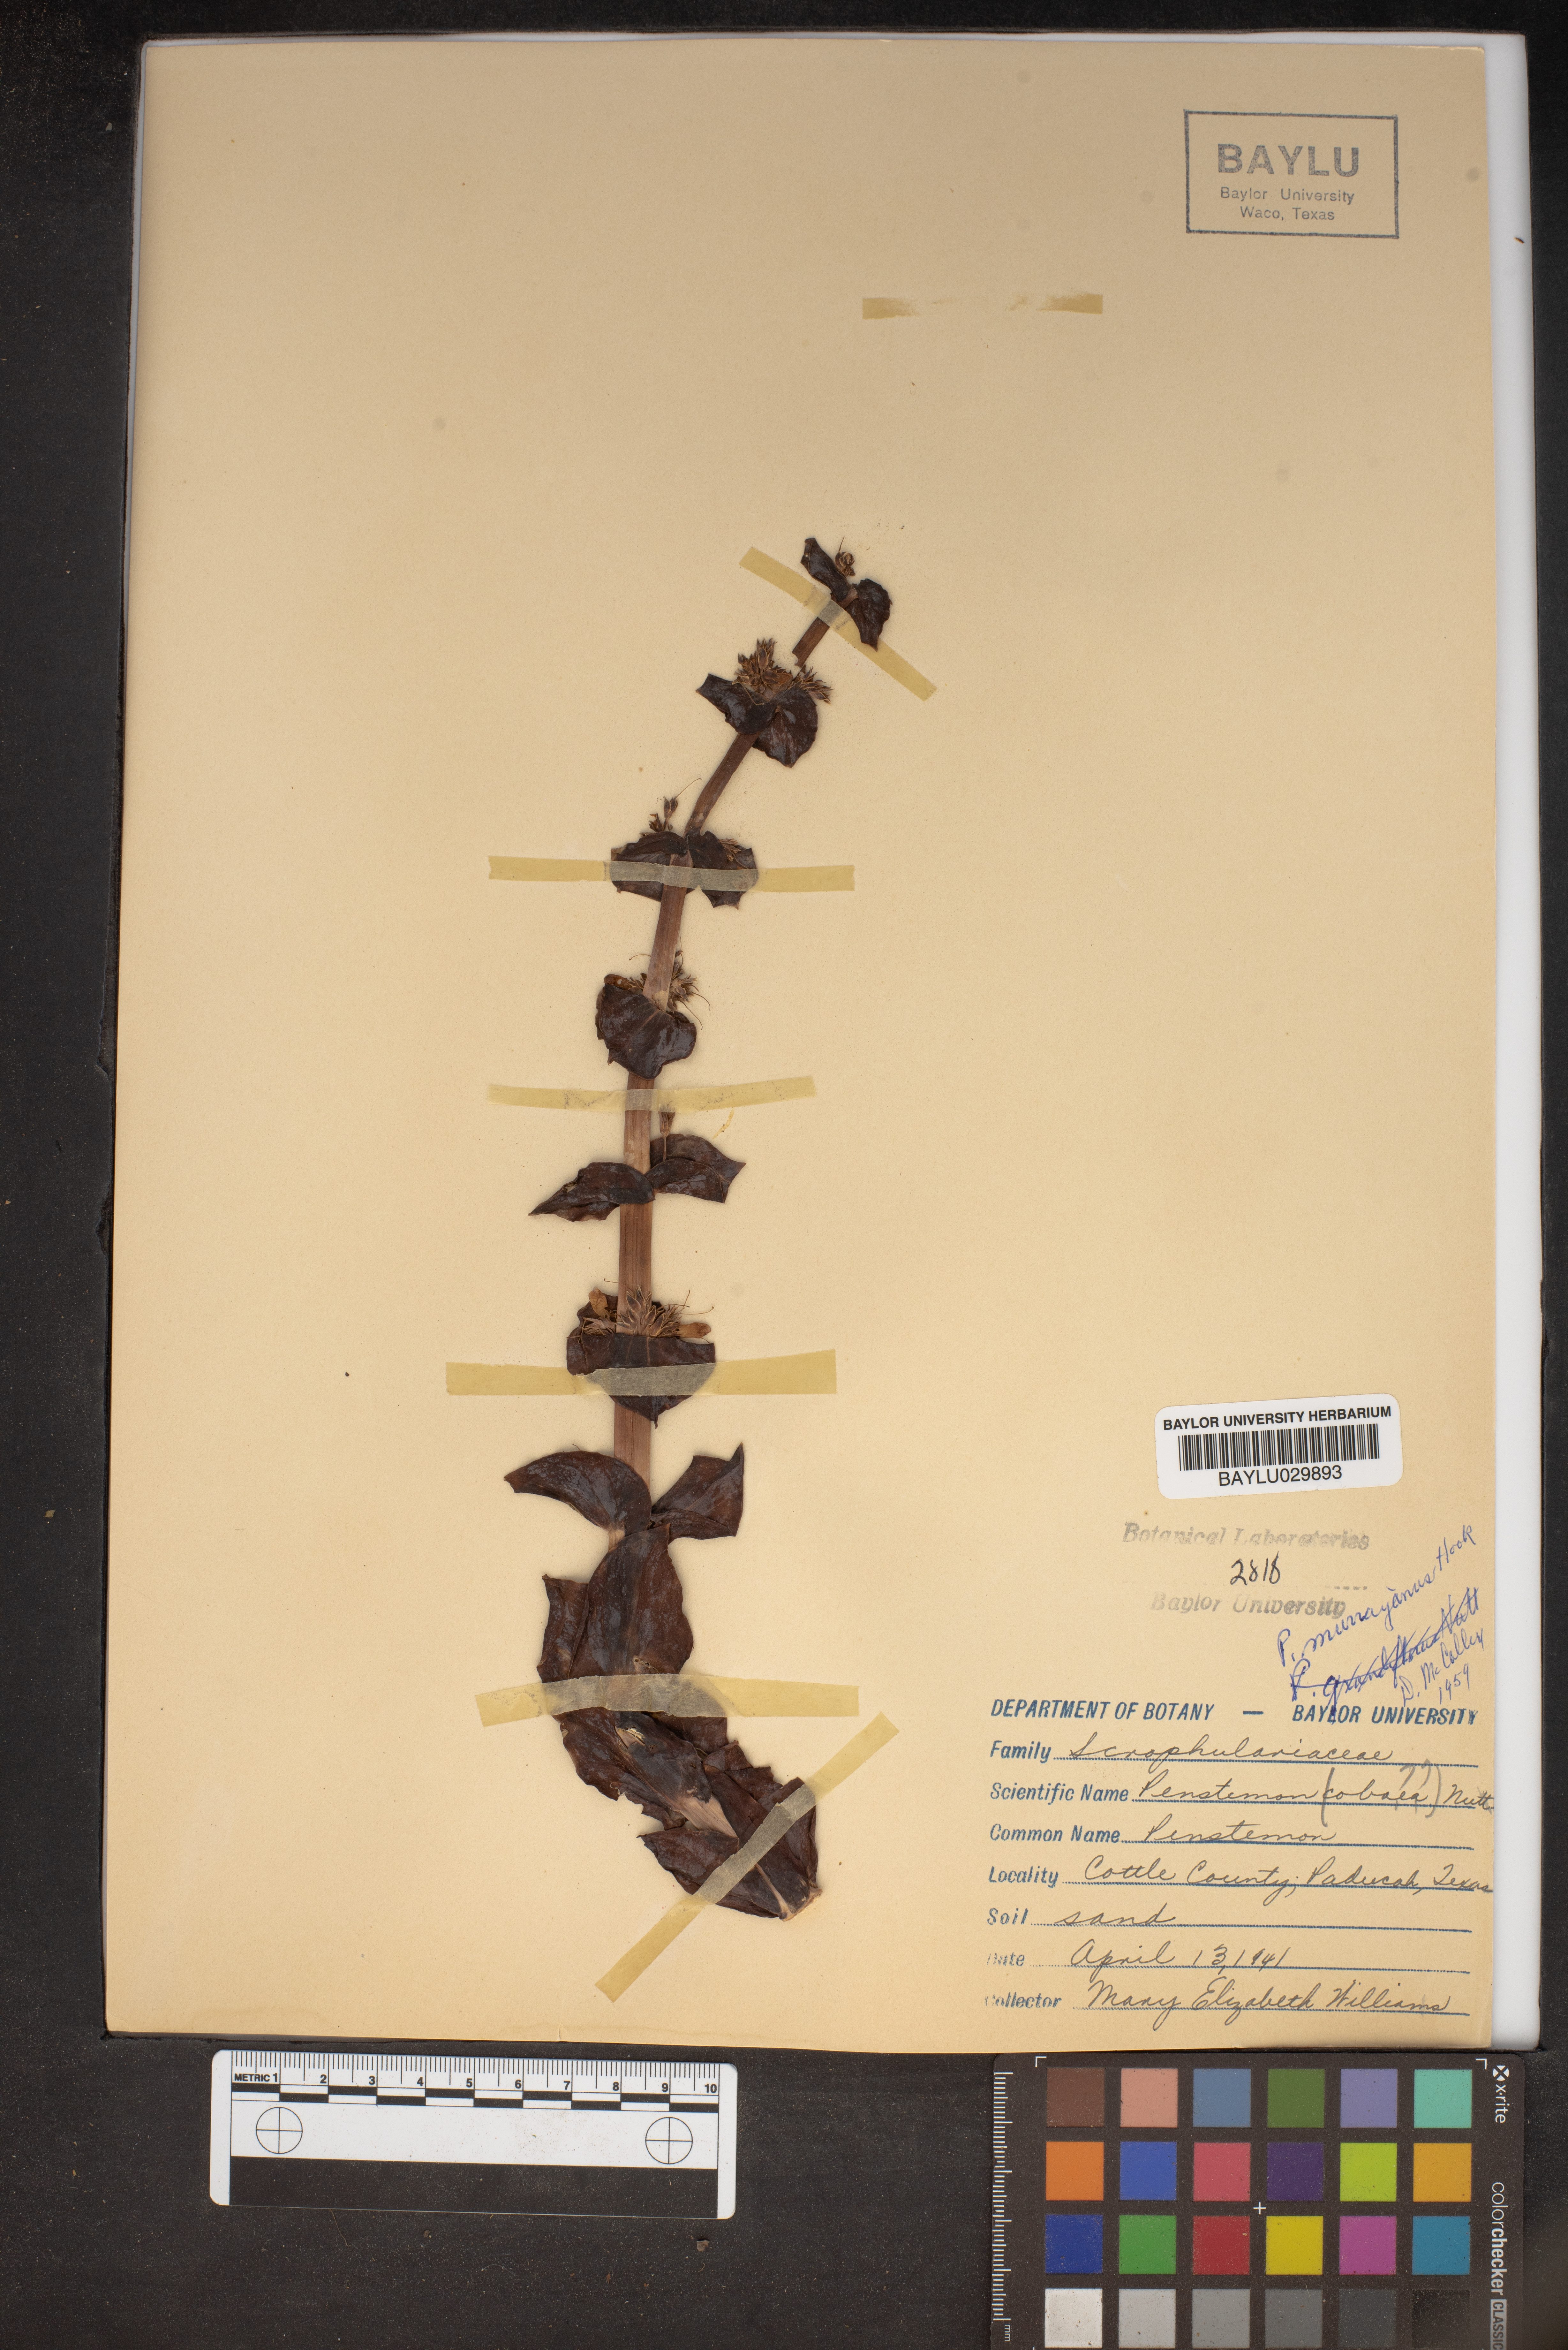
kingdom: Plantae
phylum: Tracheophyta
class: Magnoliopsida
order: Lamiales
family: Plantaginaceae
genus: Penstemon
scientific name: Penstemon murrayanus
